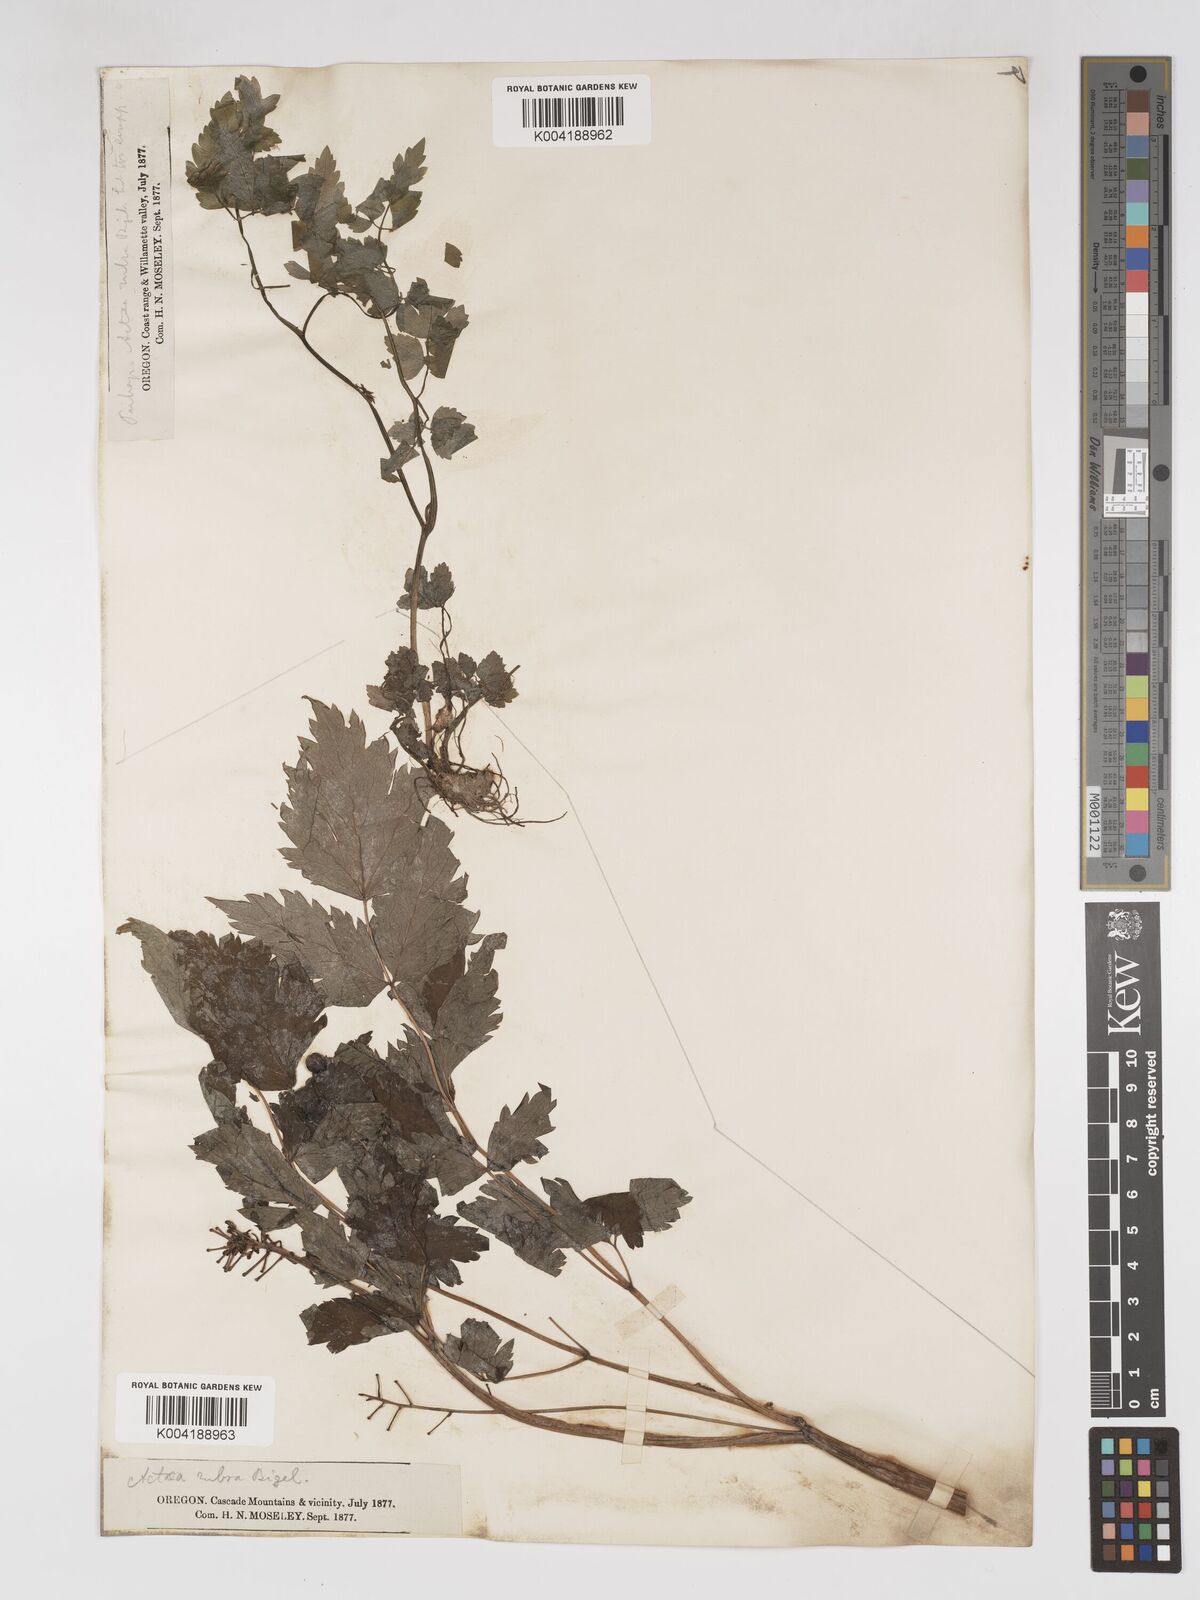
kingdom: Plantae
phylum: Tracheophyta
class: Magnoliopsida
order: Ranunculales
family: Ranunculaceae
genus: Actaea
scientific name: Actaea rubra
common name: Red baneberry
